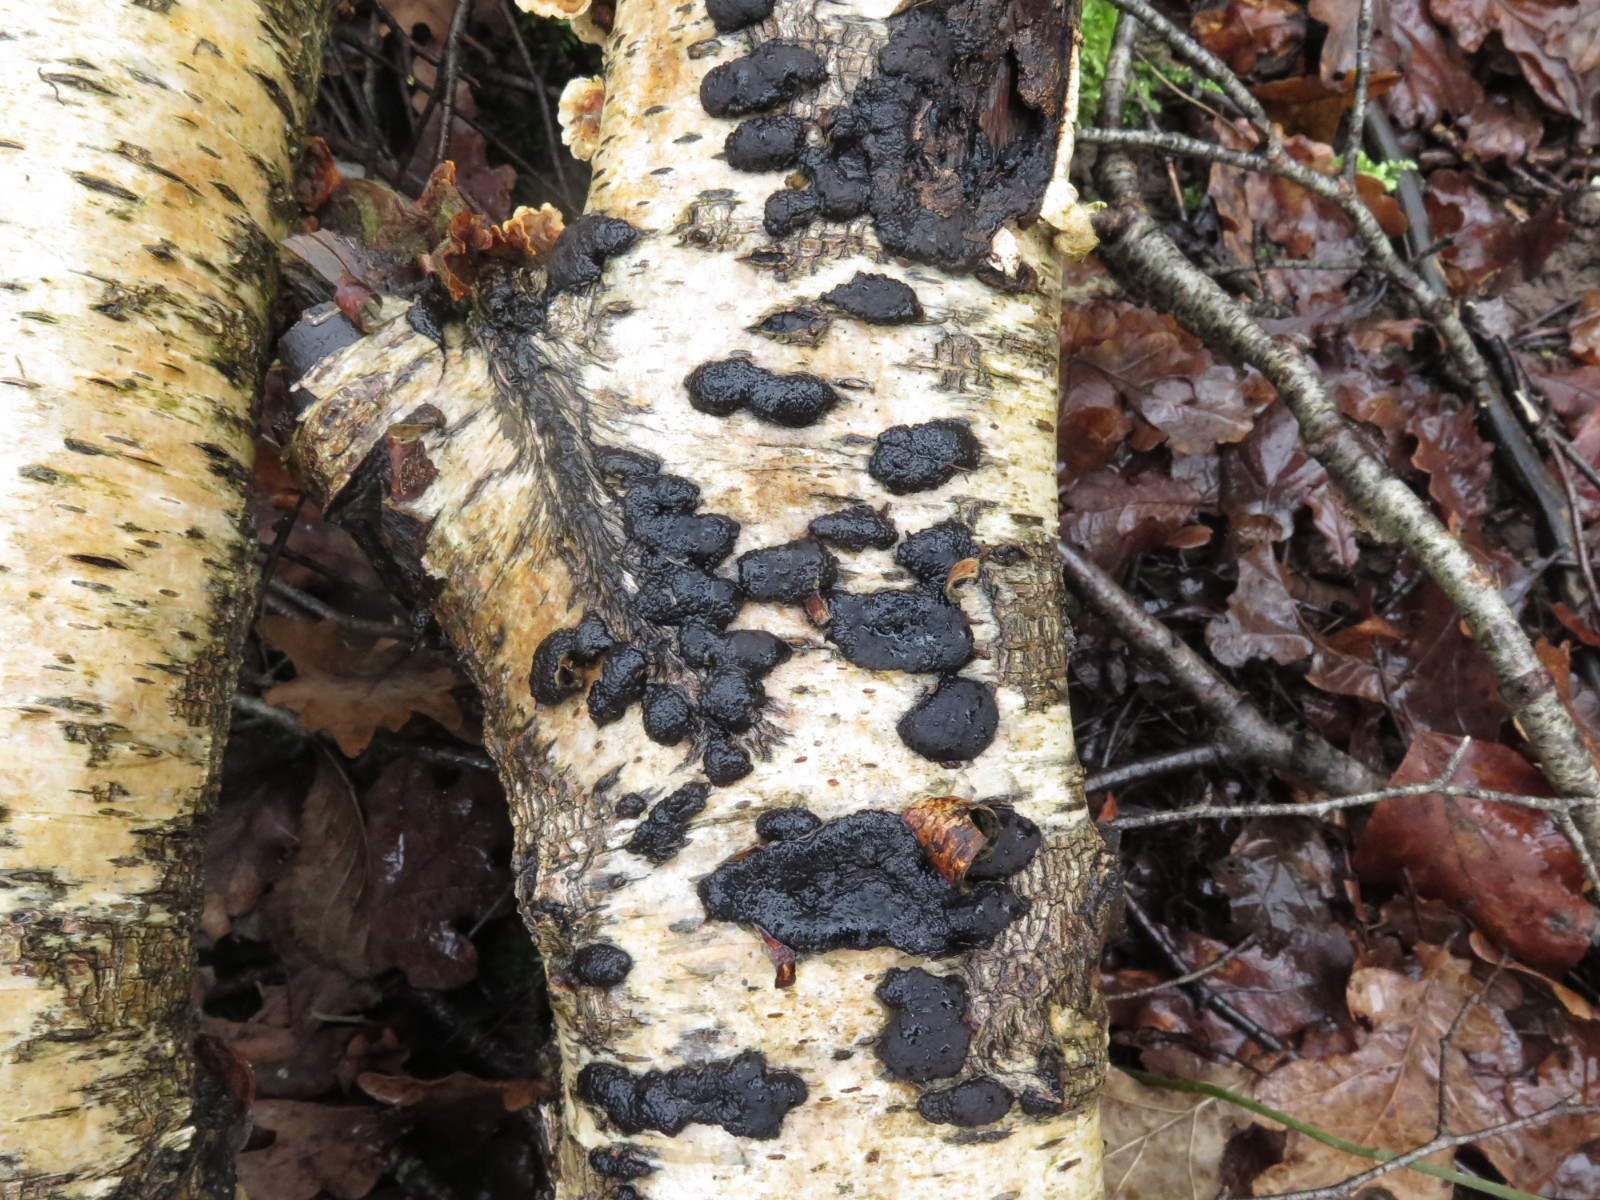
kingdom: Fungi
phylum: Ascomycota
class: Sordariomycetes
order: Xylariales
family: Hypoxylaceae
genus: Jackrogersella
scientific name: Jackrogersella multiformis
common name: foranderlig kulbær
